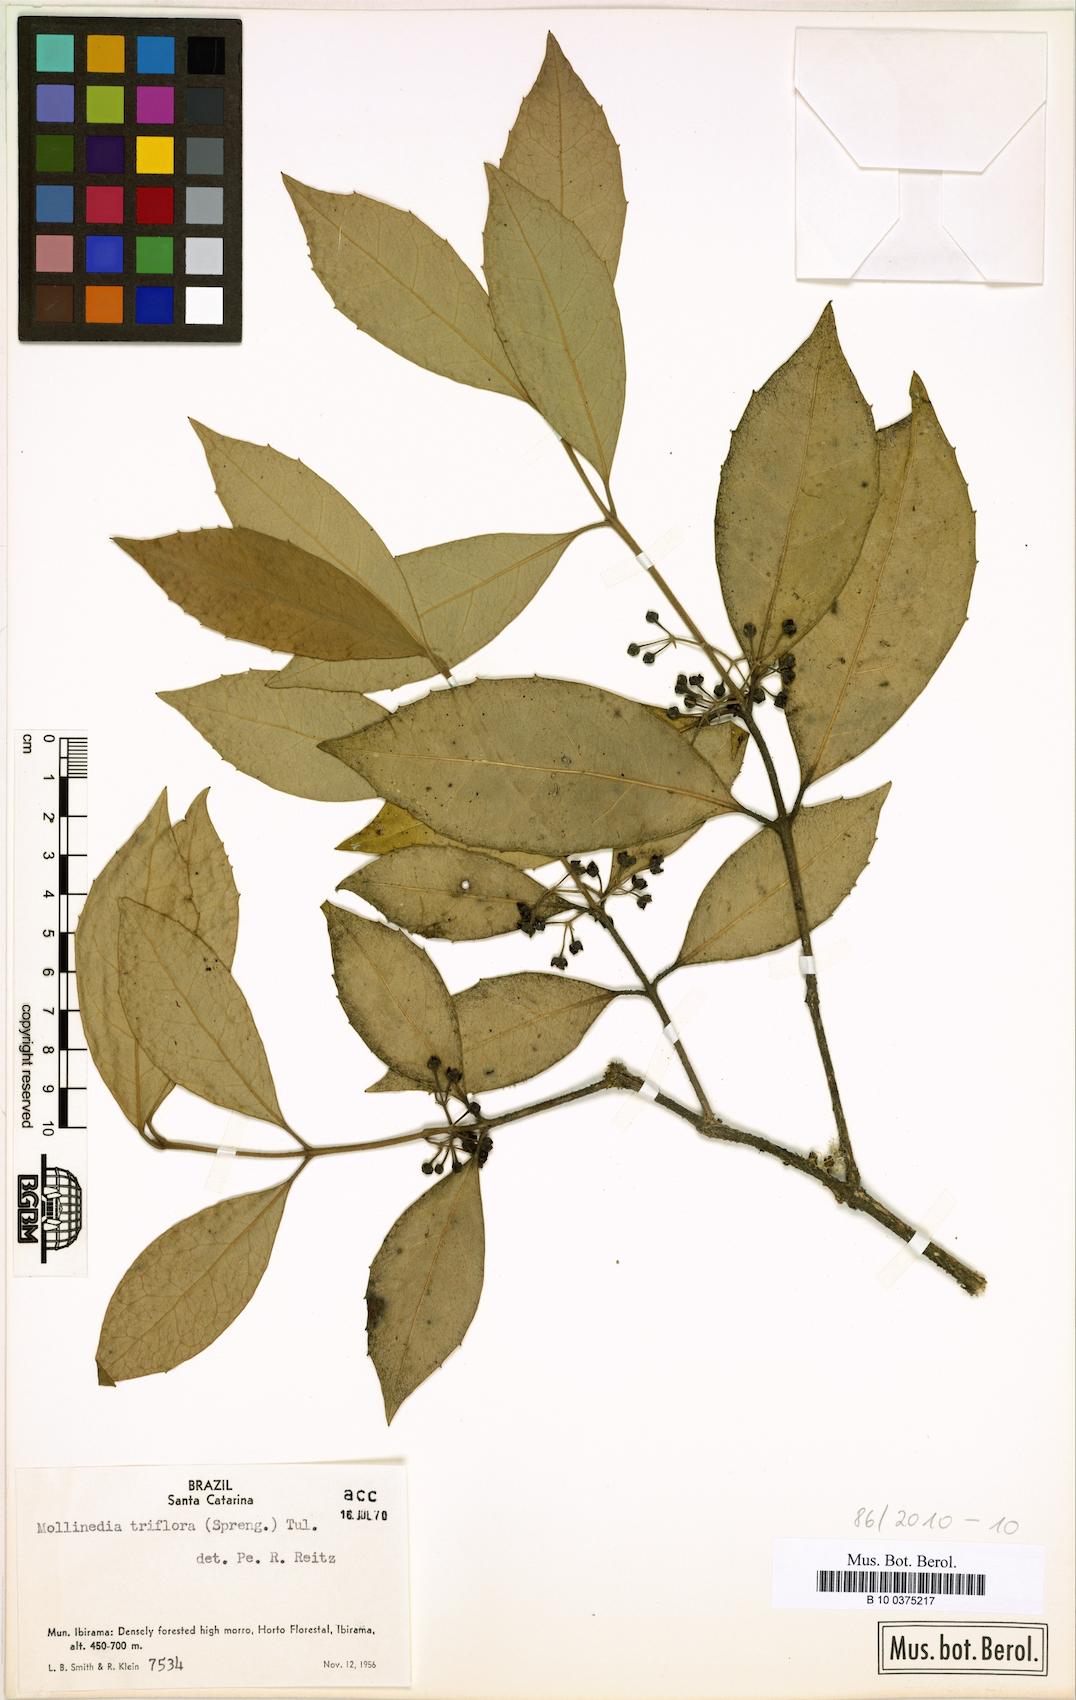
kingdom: Plantae
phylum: Tracheophyta
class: Magnoliopsida
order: Laurales
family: Monimiaceae
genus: Mollinedia
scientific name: Mollinedia triflora
